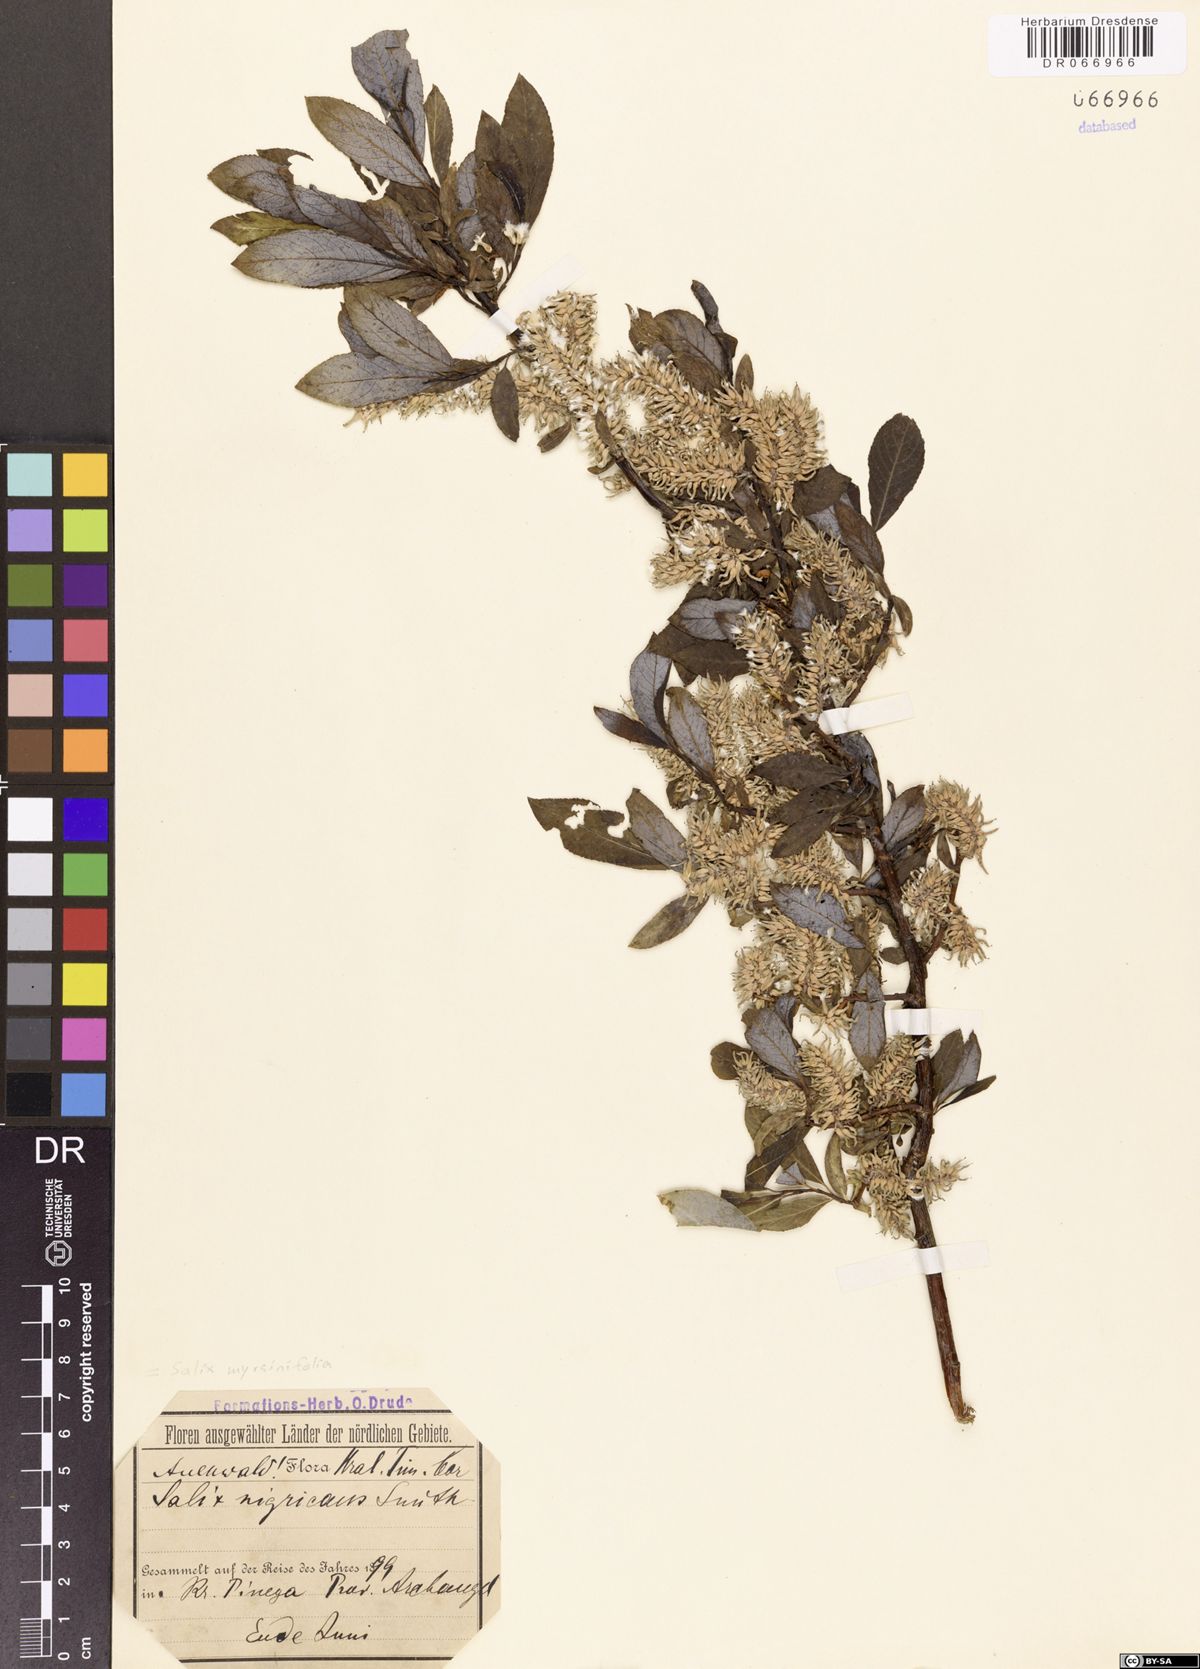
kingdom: Plantae
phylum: Tracheophyta
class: Magnoliopsida
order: Malpighiales
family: Salicaceae
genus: Salix
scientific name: Salix myrsinifolia
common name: Dark-leaved willow
